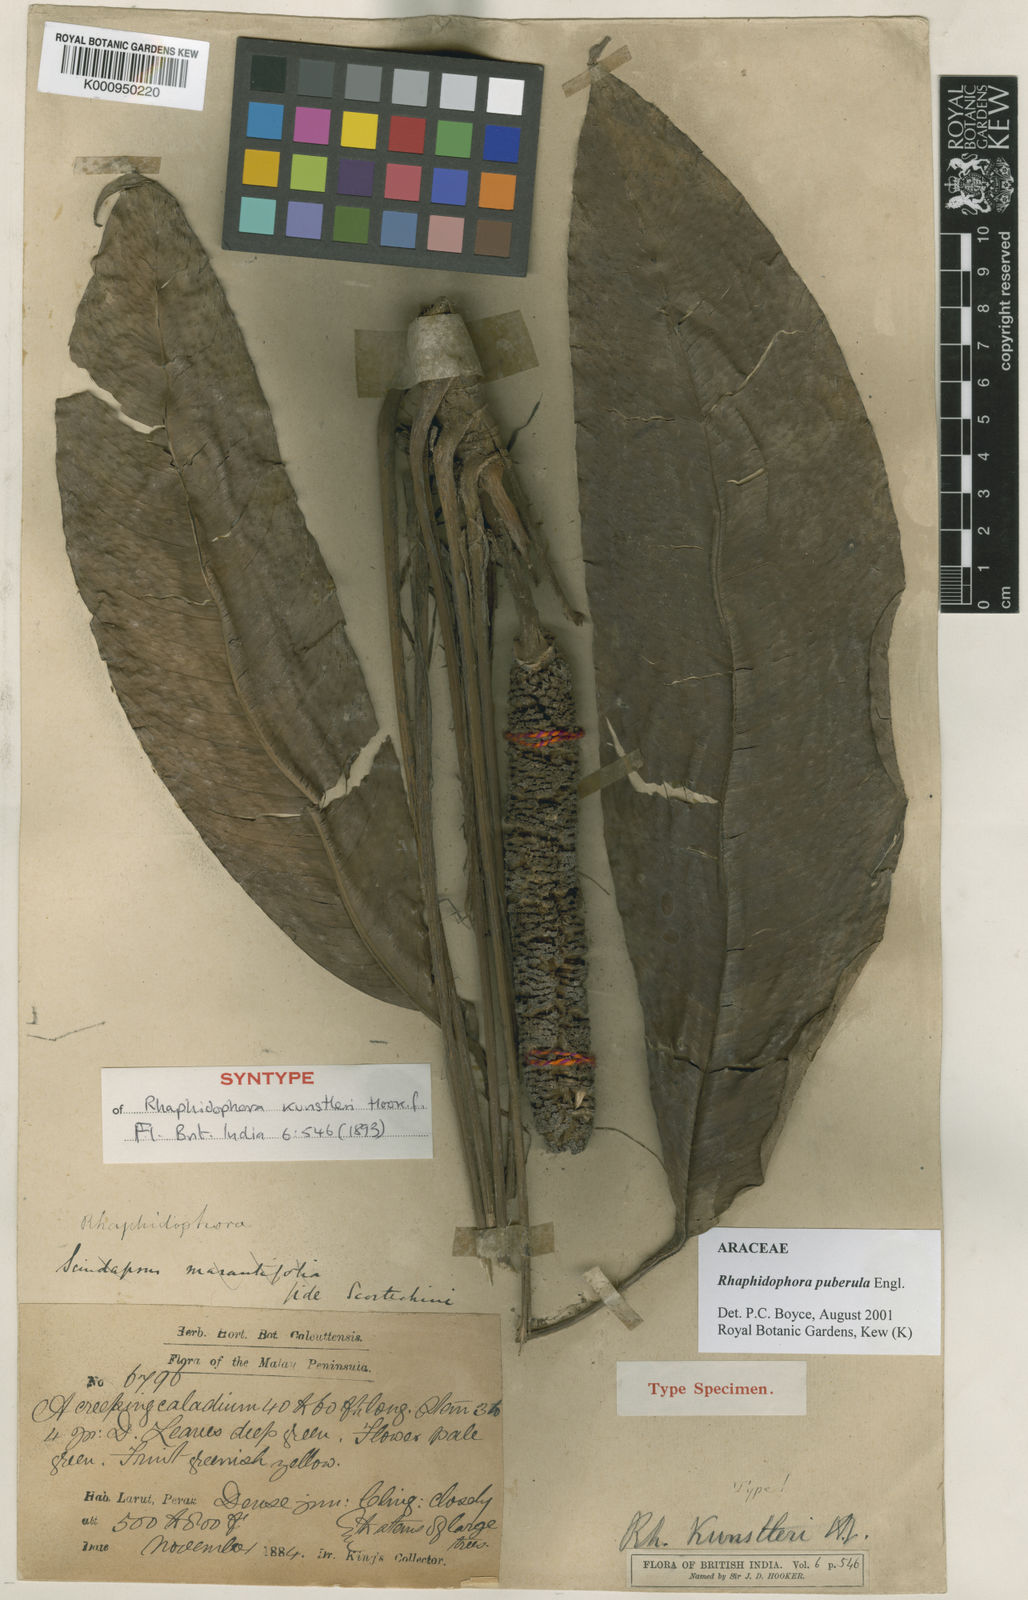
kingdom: Plantae
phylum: Tracheophyta
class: Liliopsida
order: Alismatales
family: Araceae
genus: Rhaphidophora
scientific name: Rhaphidophora puberula
